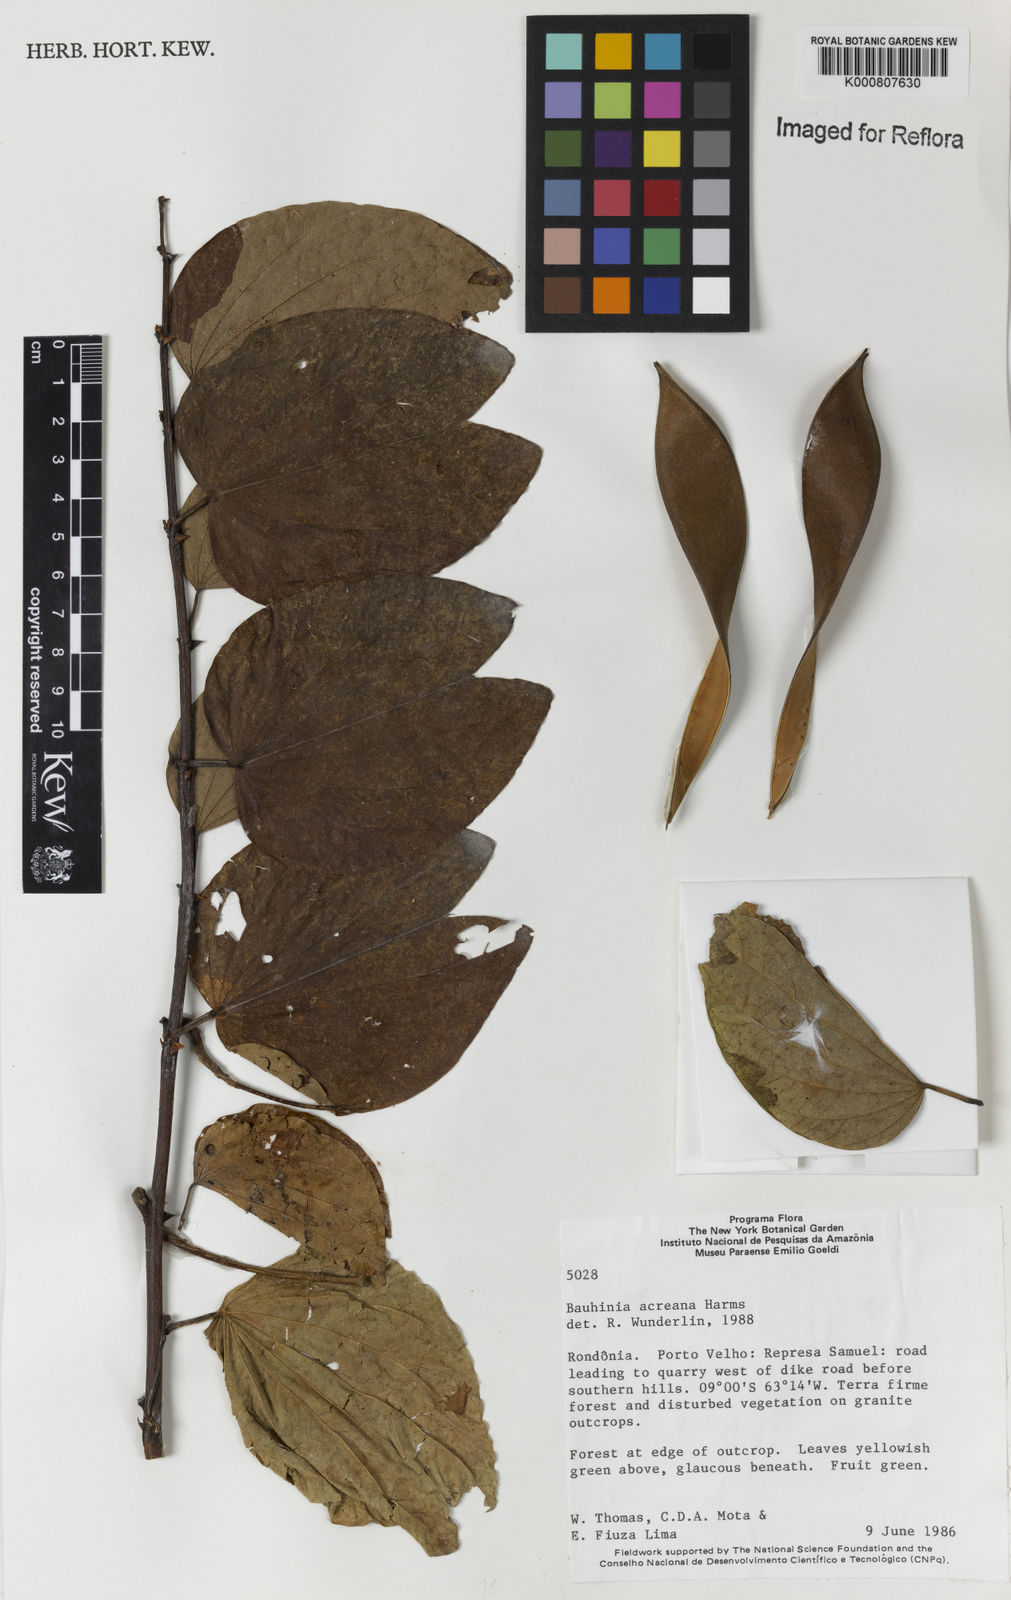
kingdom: Plantae
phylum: Tracheophyta
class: Magnoliopsida
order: Fabales
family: Fabaceae
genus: Bauhinia
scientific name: Bauhinia acreana
